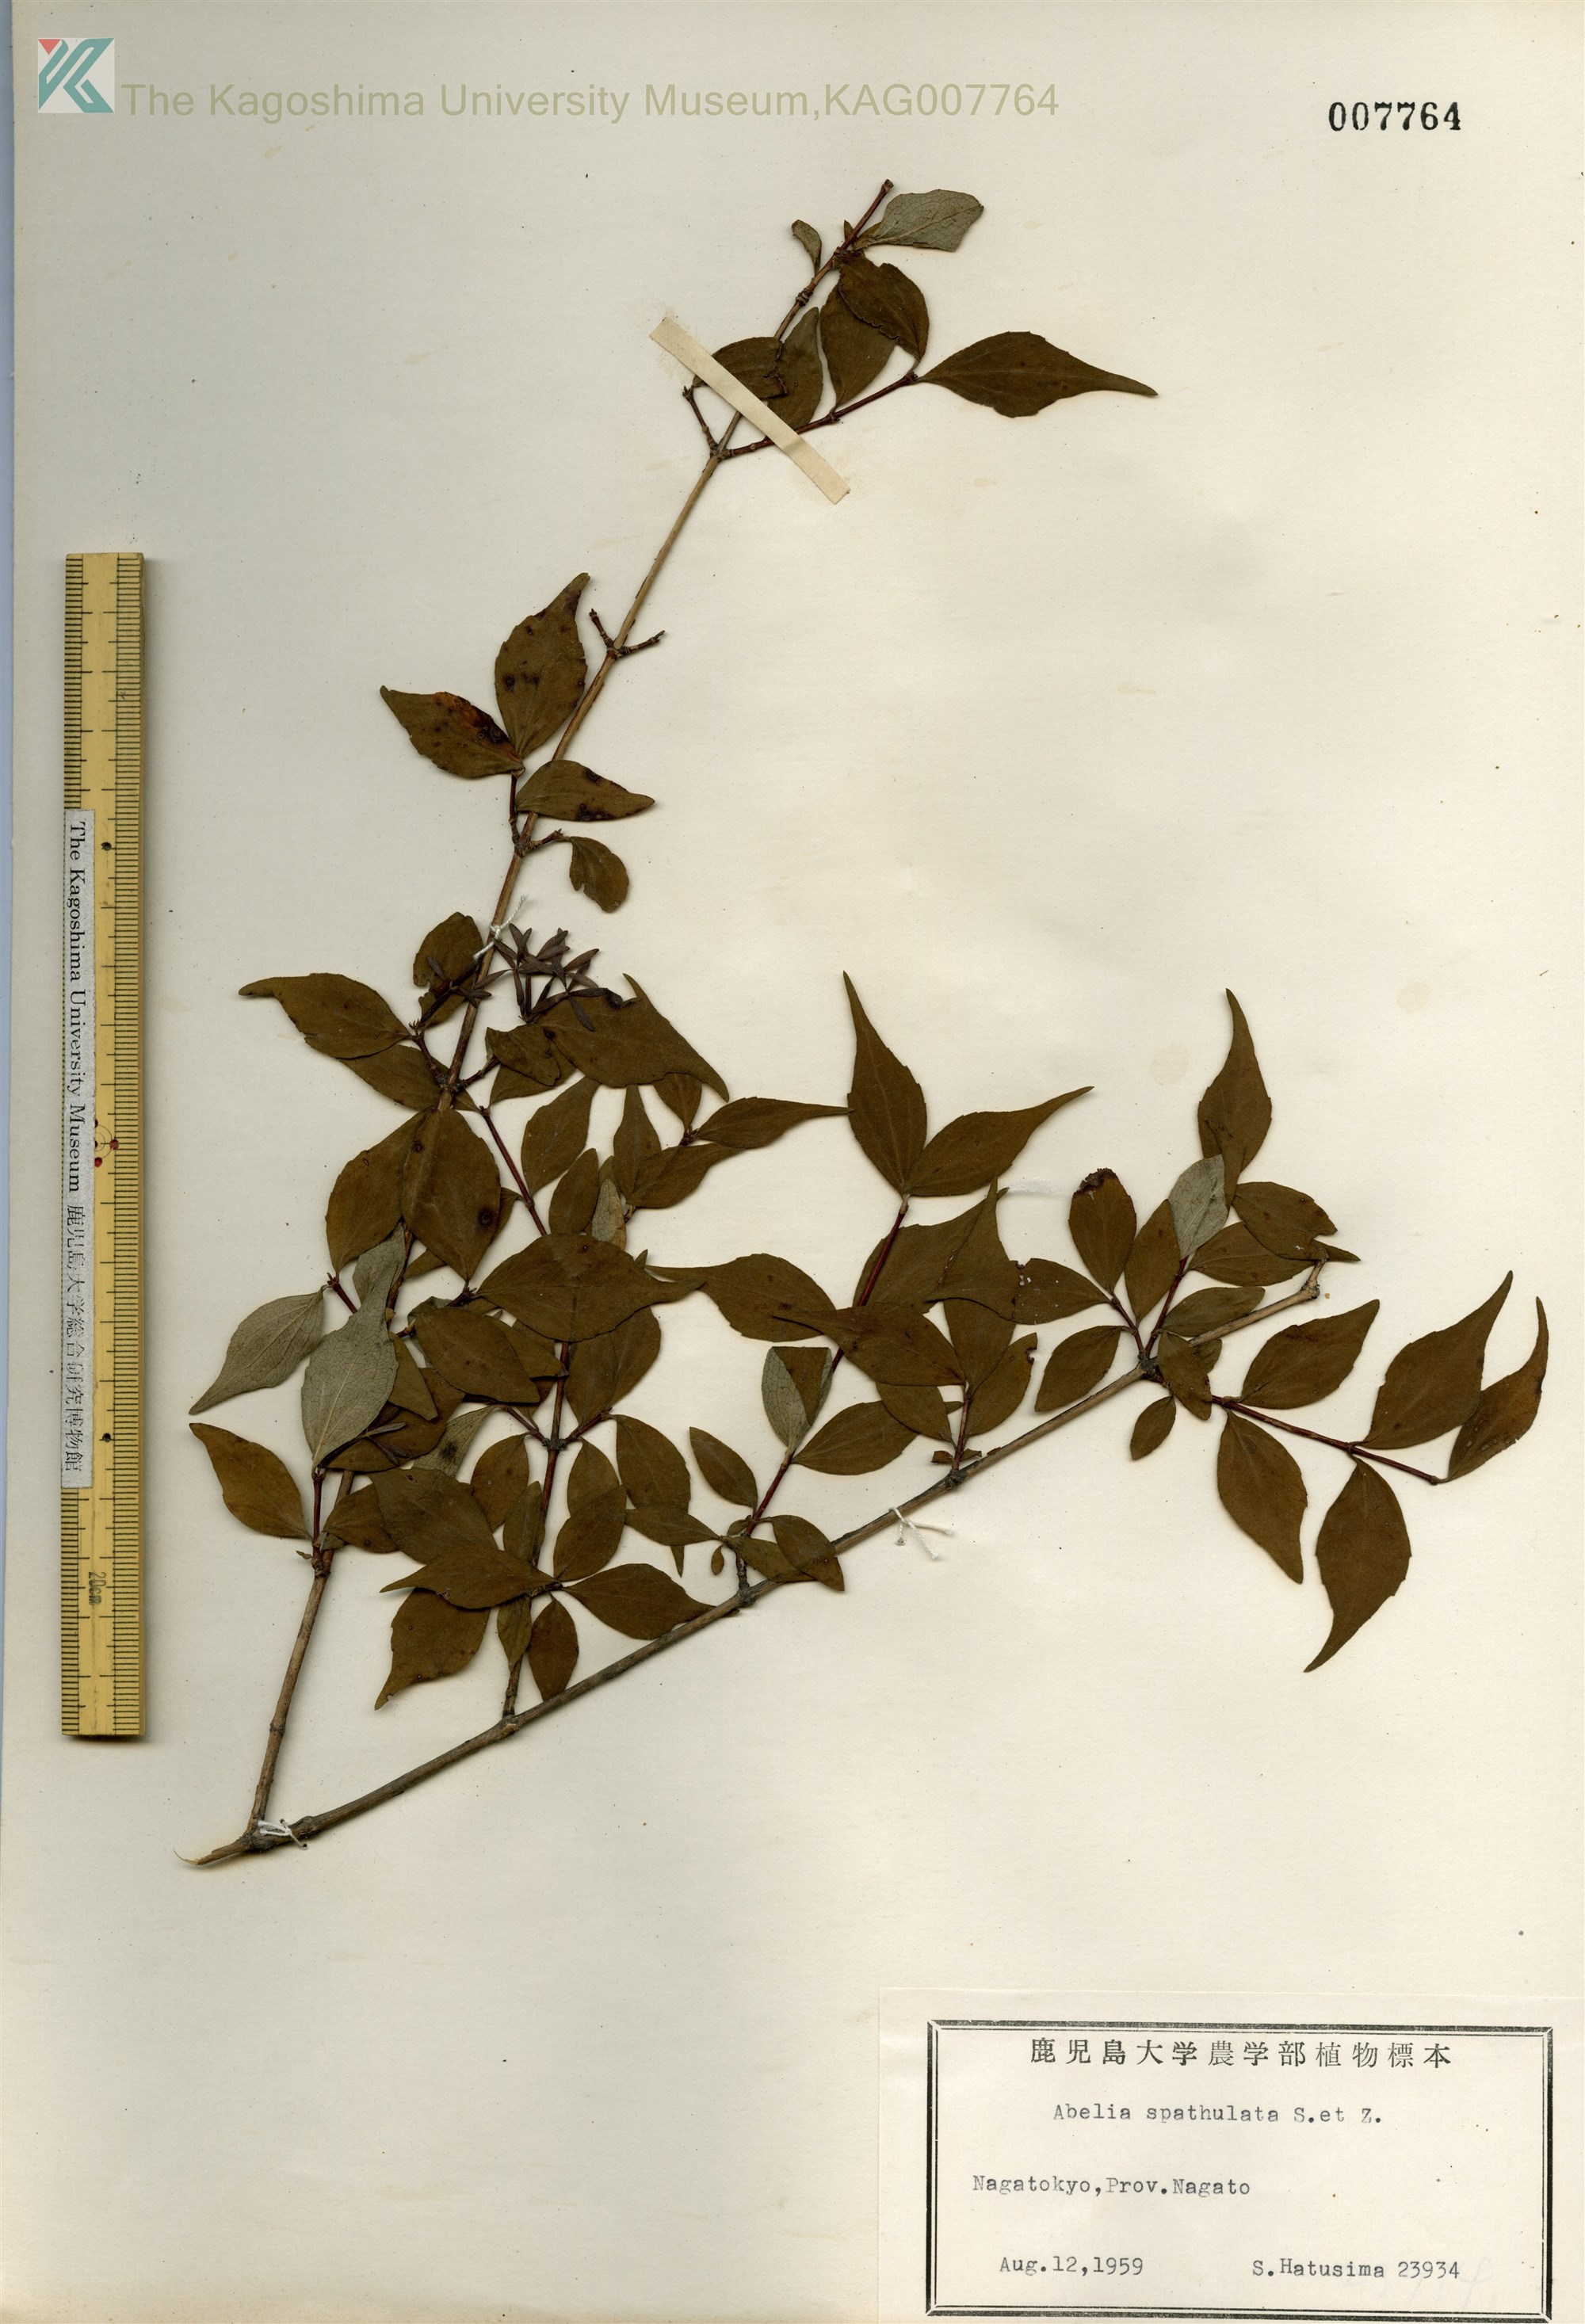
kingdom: Plantae
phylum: Tracheophyta
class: Magnoliopsida
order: Dipsacales
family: Caprifoliaceae
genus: Diabelia
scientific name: Diabelia spathulata
